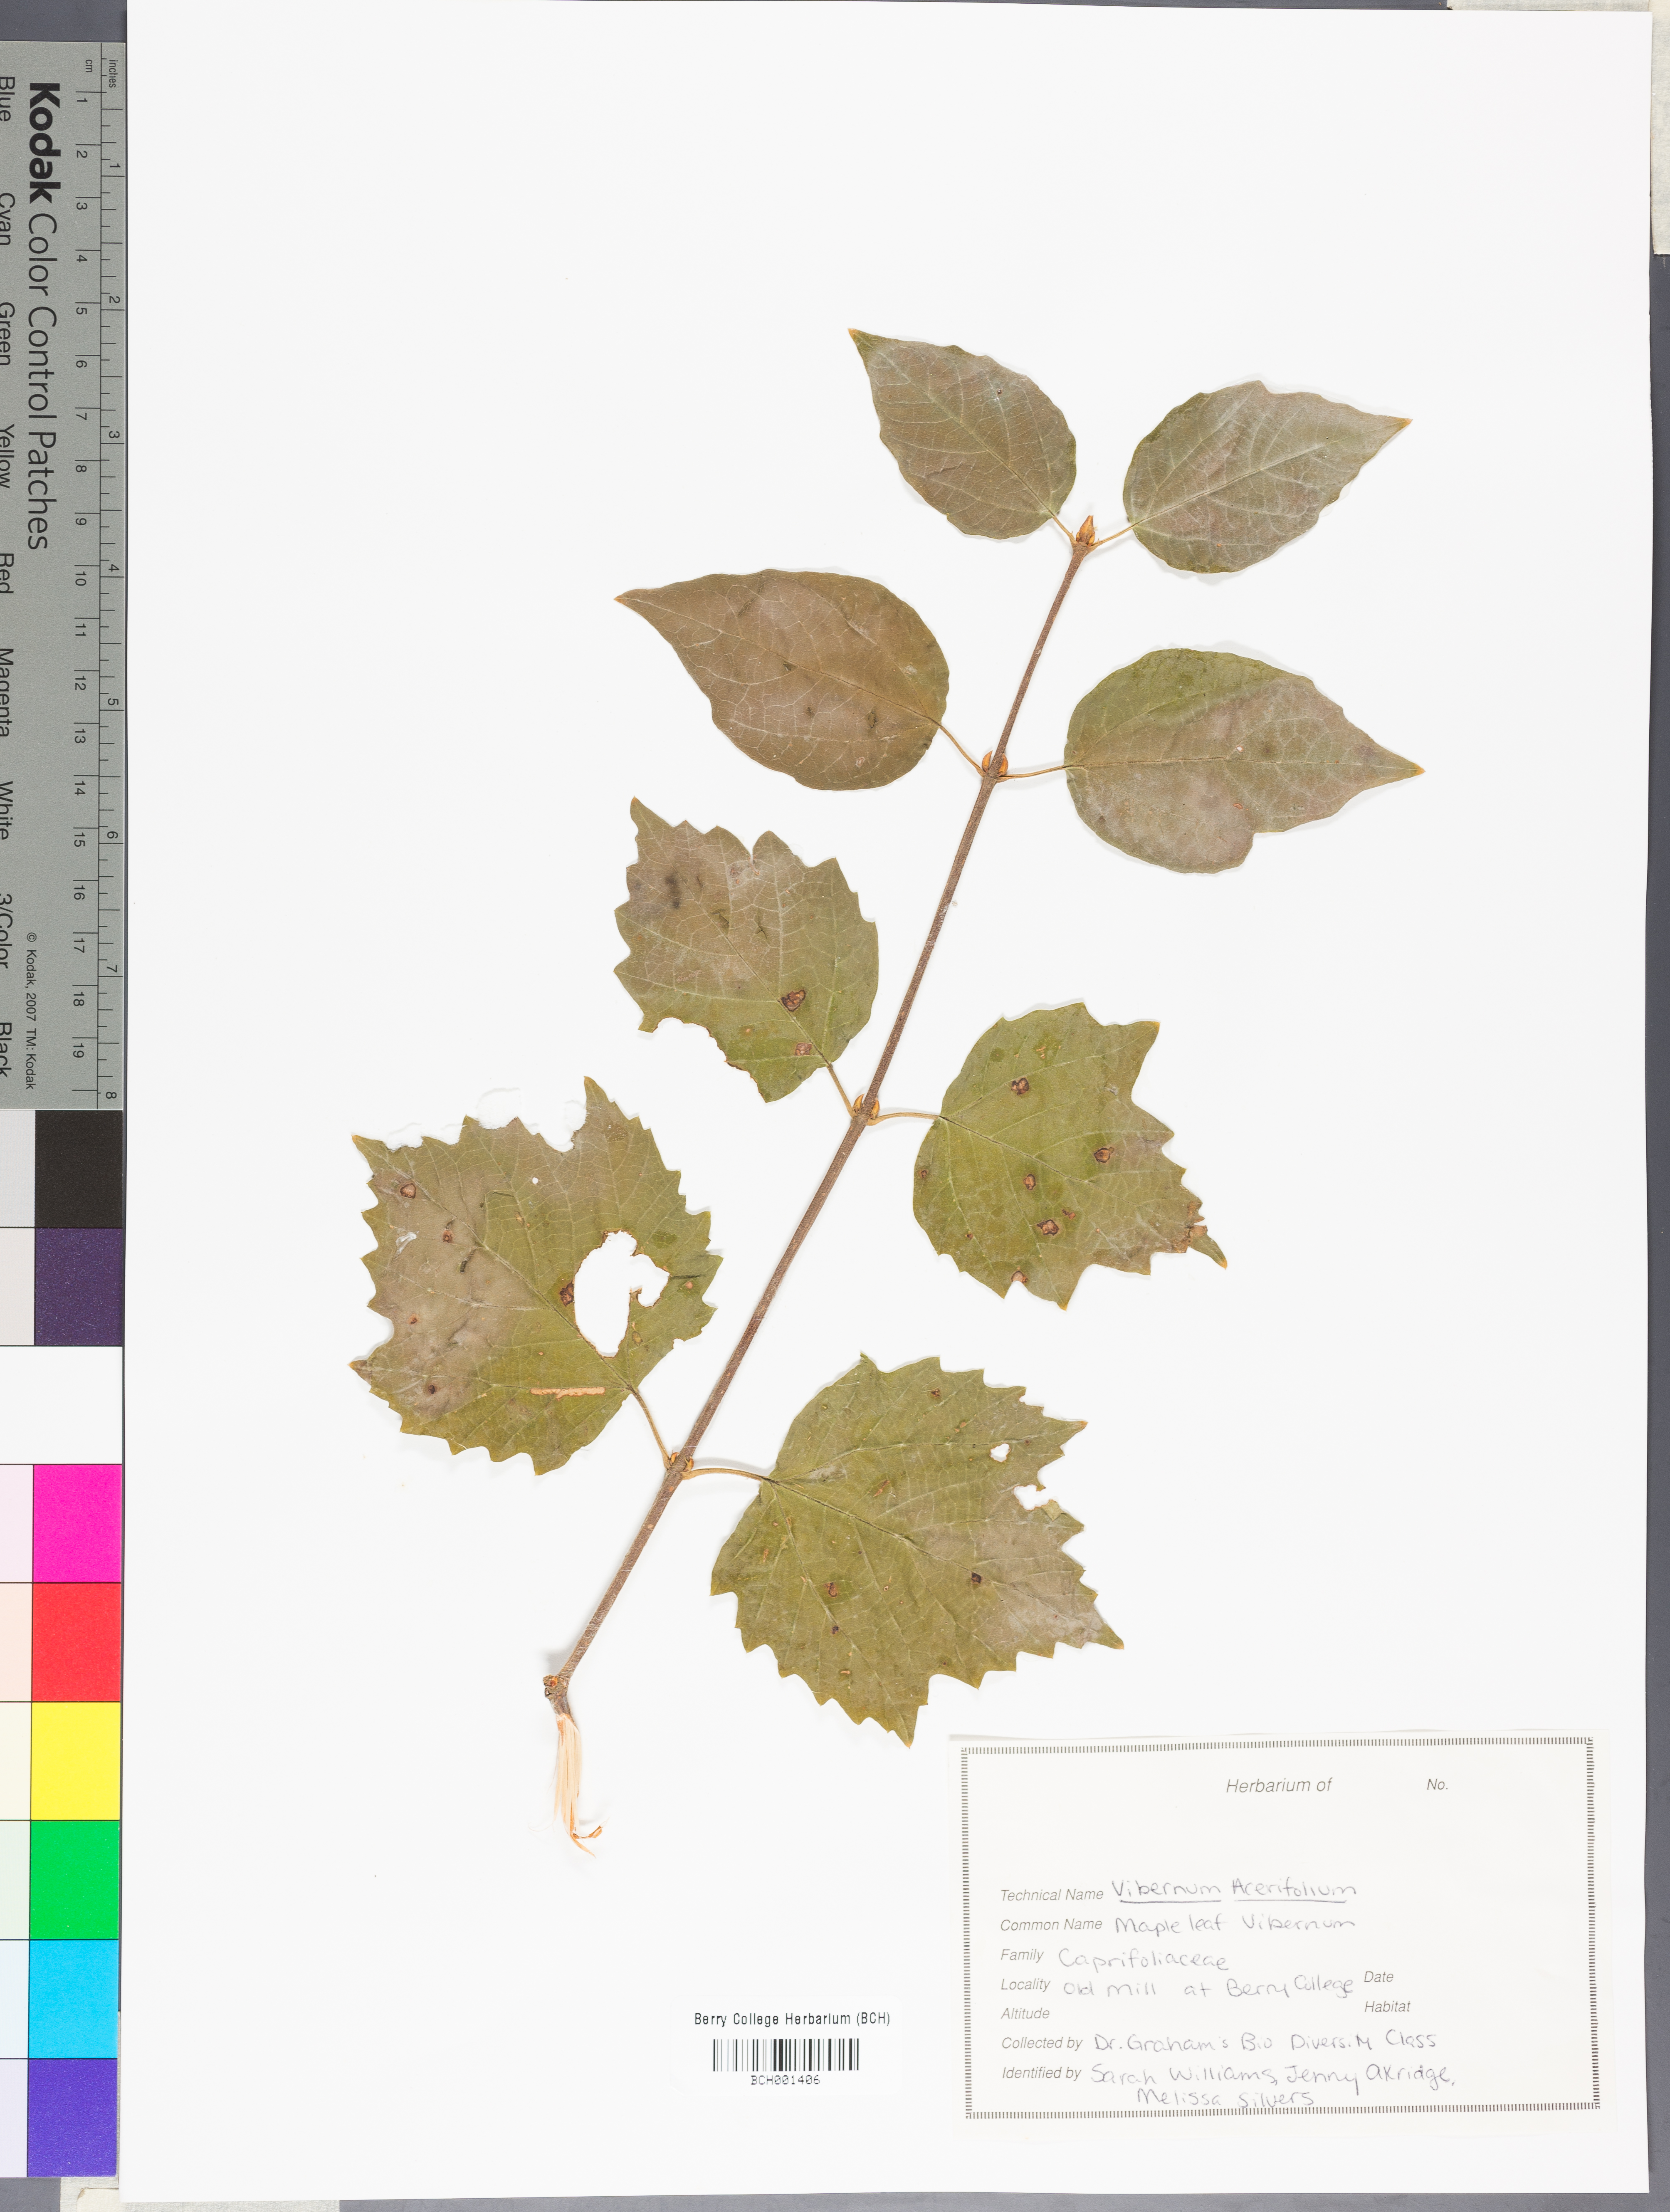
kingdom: Plantae
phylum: Tracheophyta
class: Magnoliopsida
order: Dipsacales
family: Viburnaceae
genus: Viburnum
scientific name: Viburnum acerifolium
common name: Dockmackie
